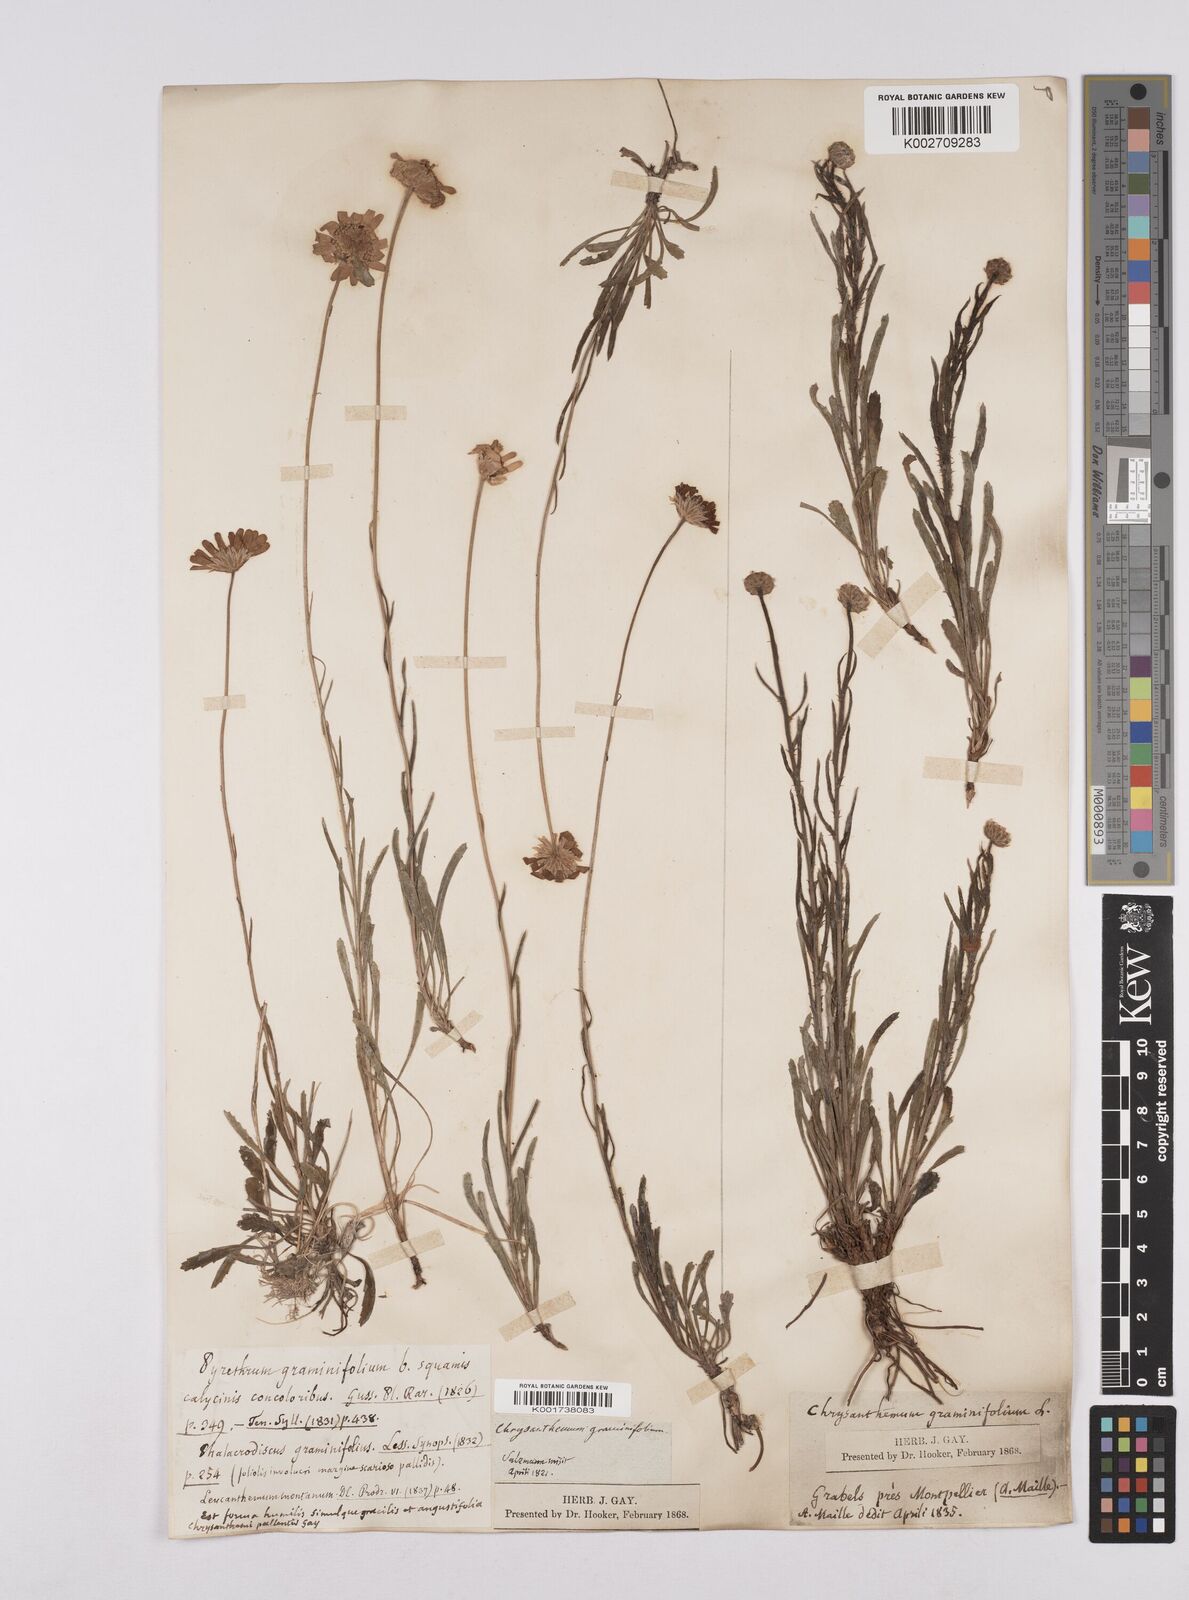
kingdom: Plantae
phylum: Tracheophyta
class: Magnoliopsida
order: Asterales
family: Asteraceae
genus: Leucanthemum
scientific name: Leucanthemum chloroticum
